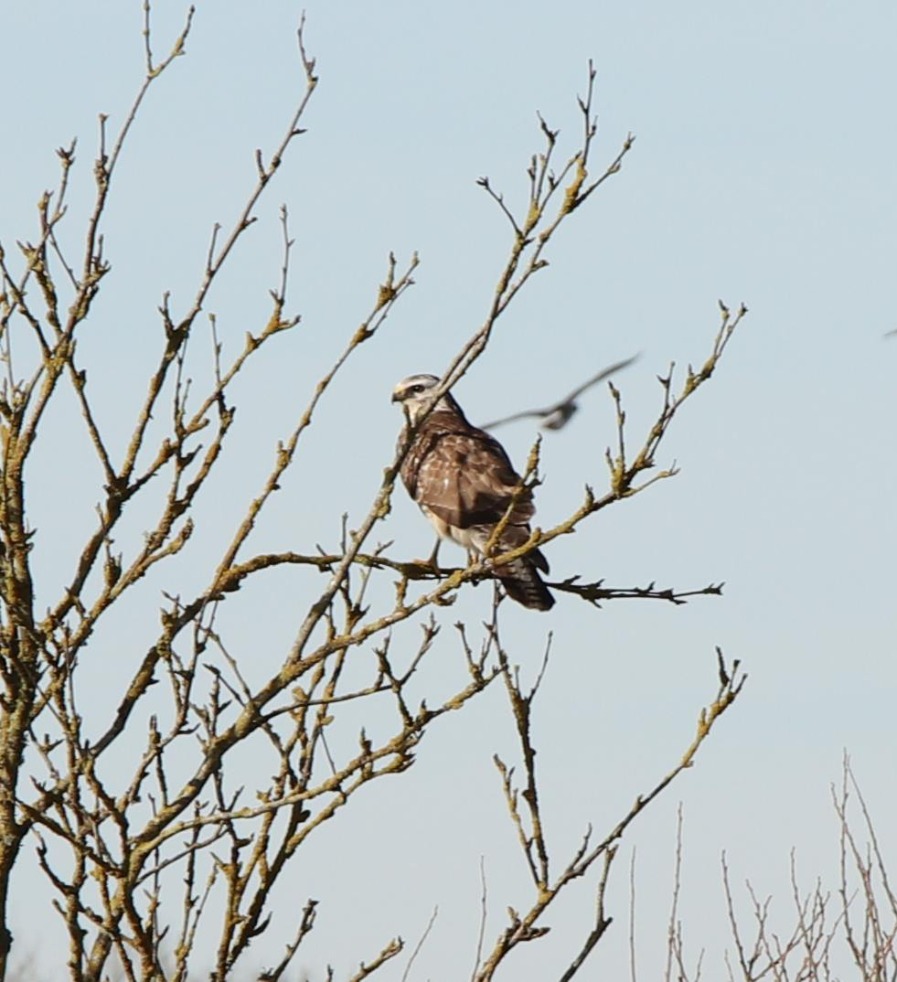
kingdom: Animalia
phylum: Chordata
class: Aves
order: Accipitriformes
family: Accipitridae
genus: Buteo
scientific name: Buteo buteo
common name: Musvåge
